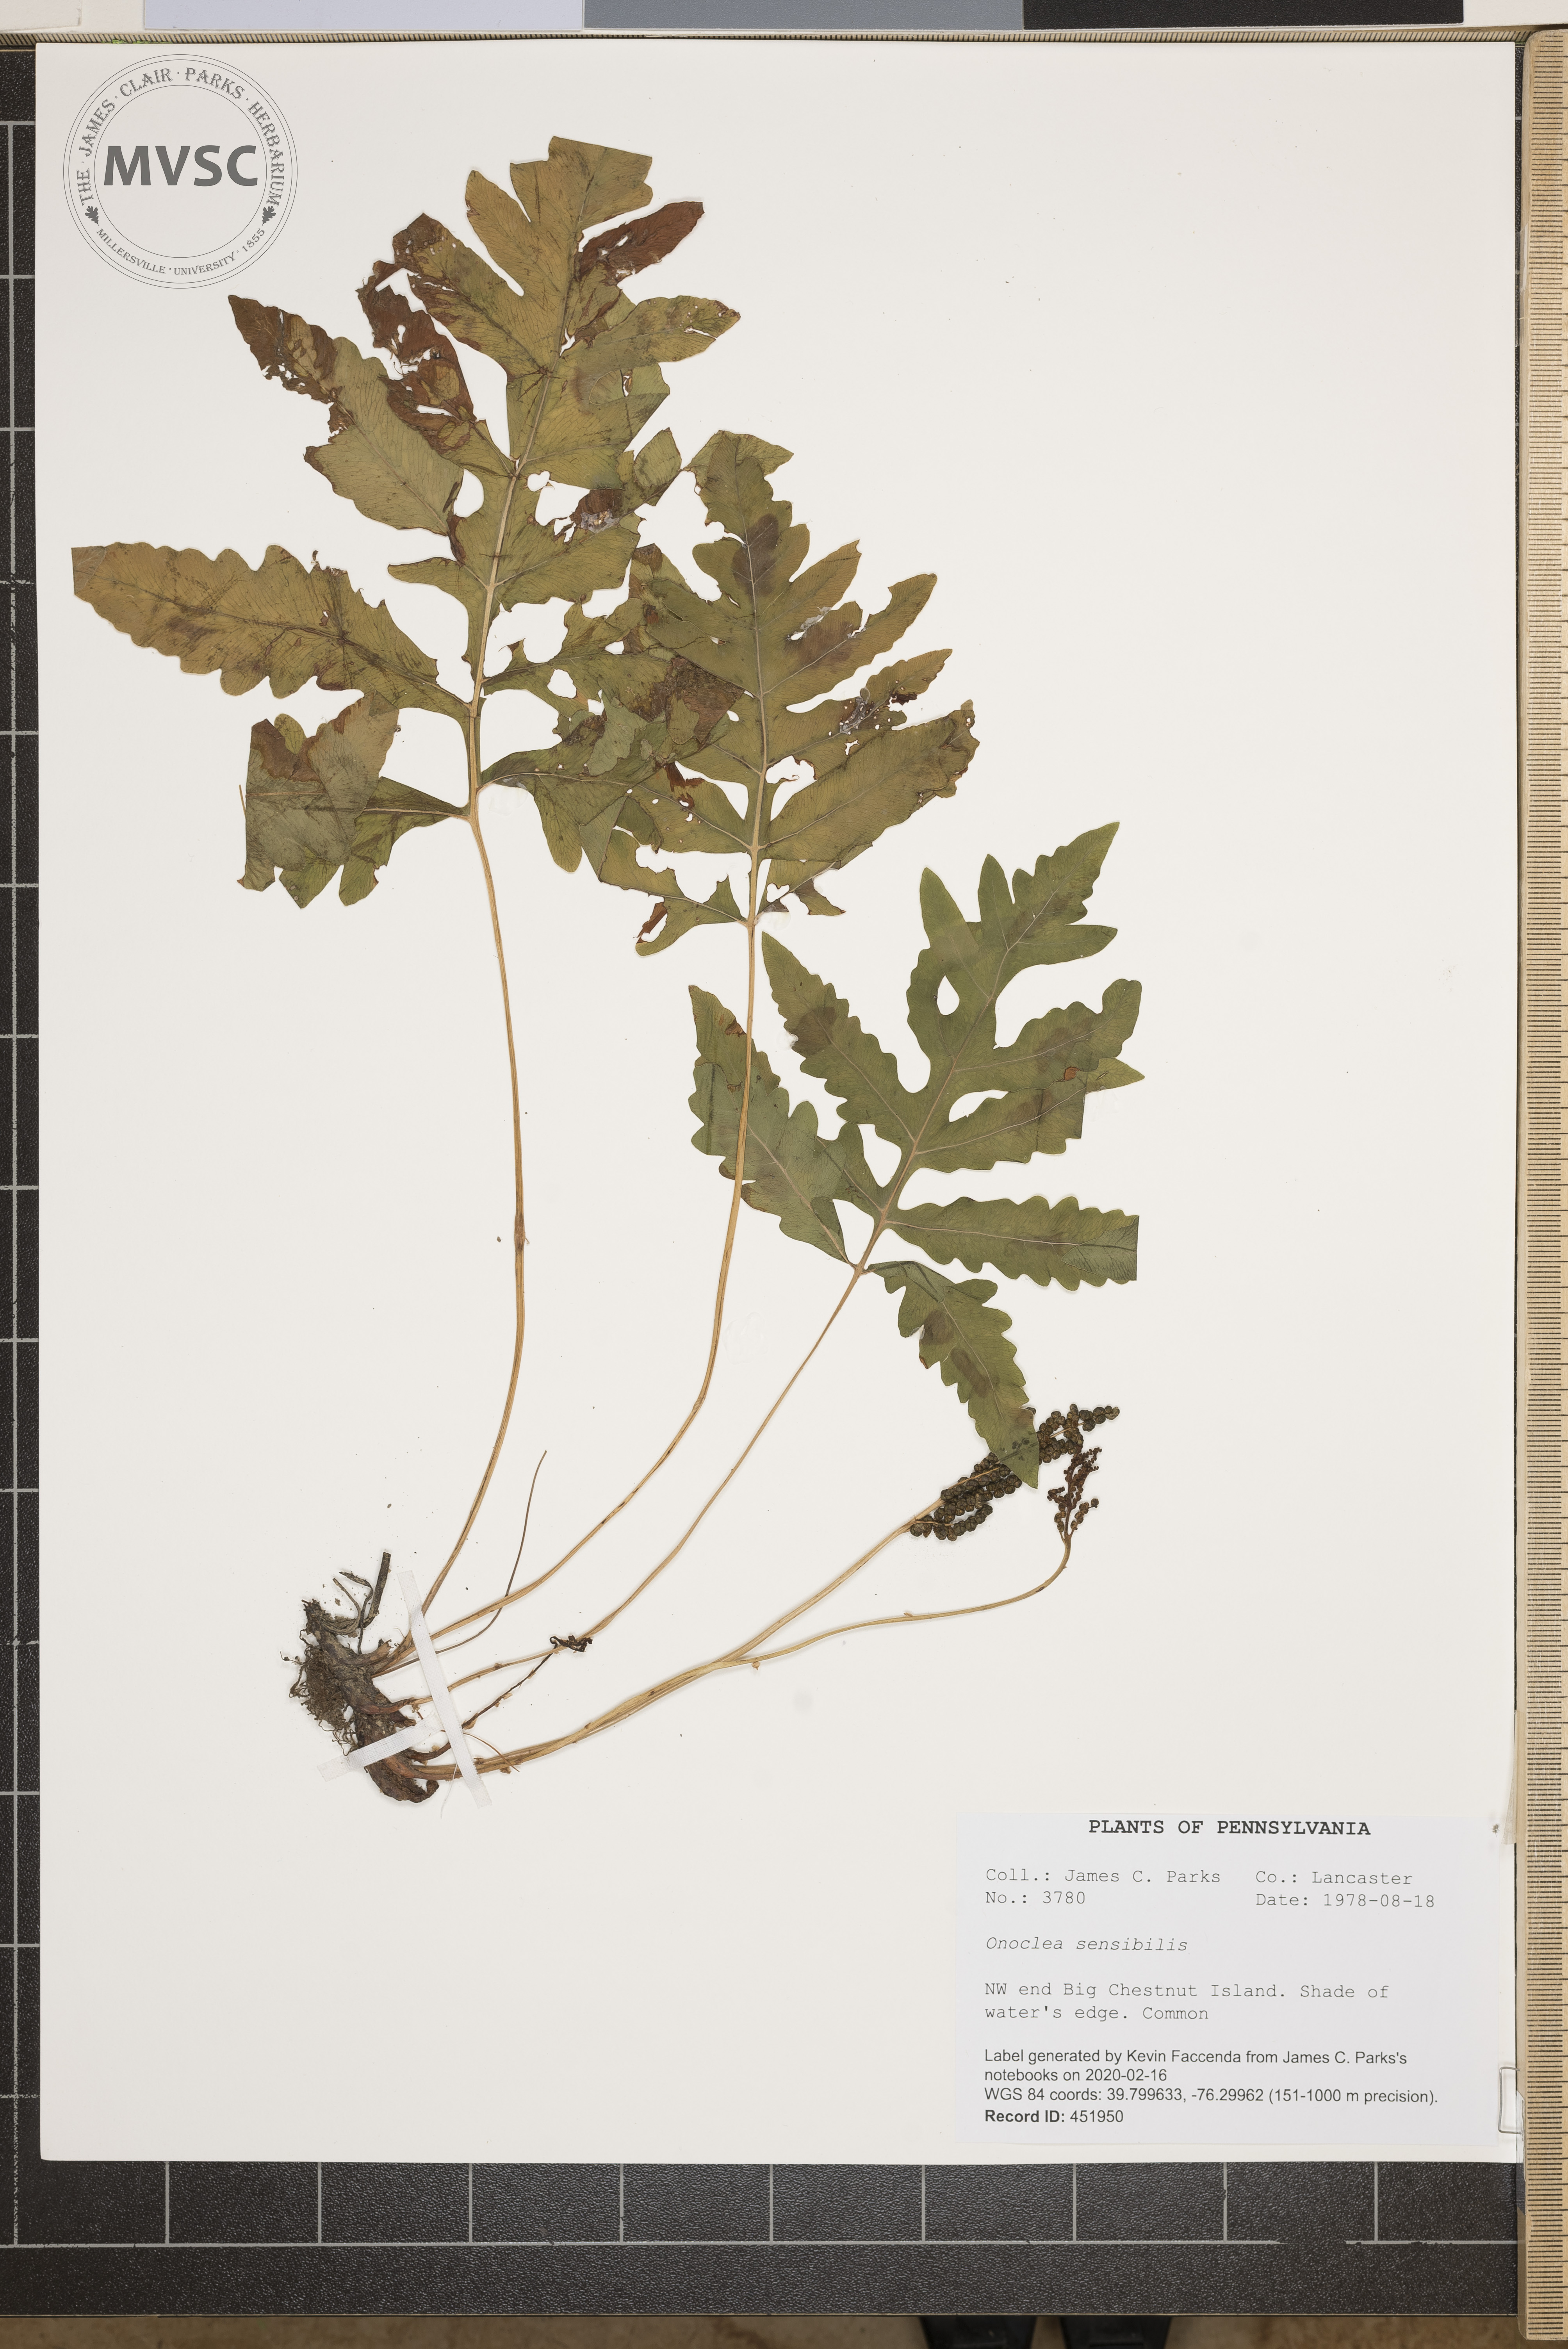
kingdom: Plantae
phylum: Tracheophyta
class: Polypodiopsida
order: Polypodiales
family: Onocleaceae
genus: Onoclea
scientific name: Onoclea sensibilis
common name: Sensitive fern
